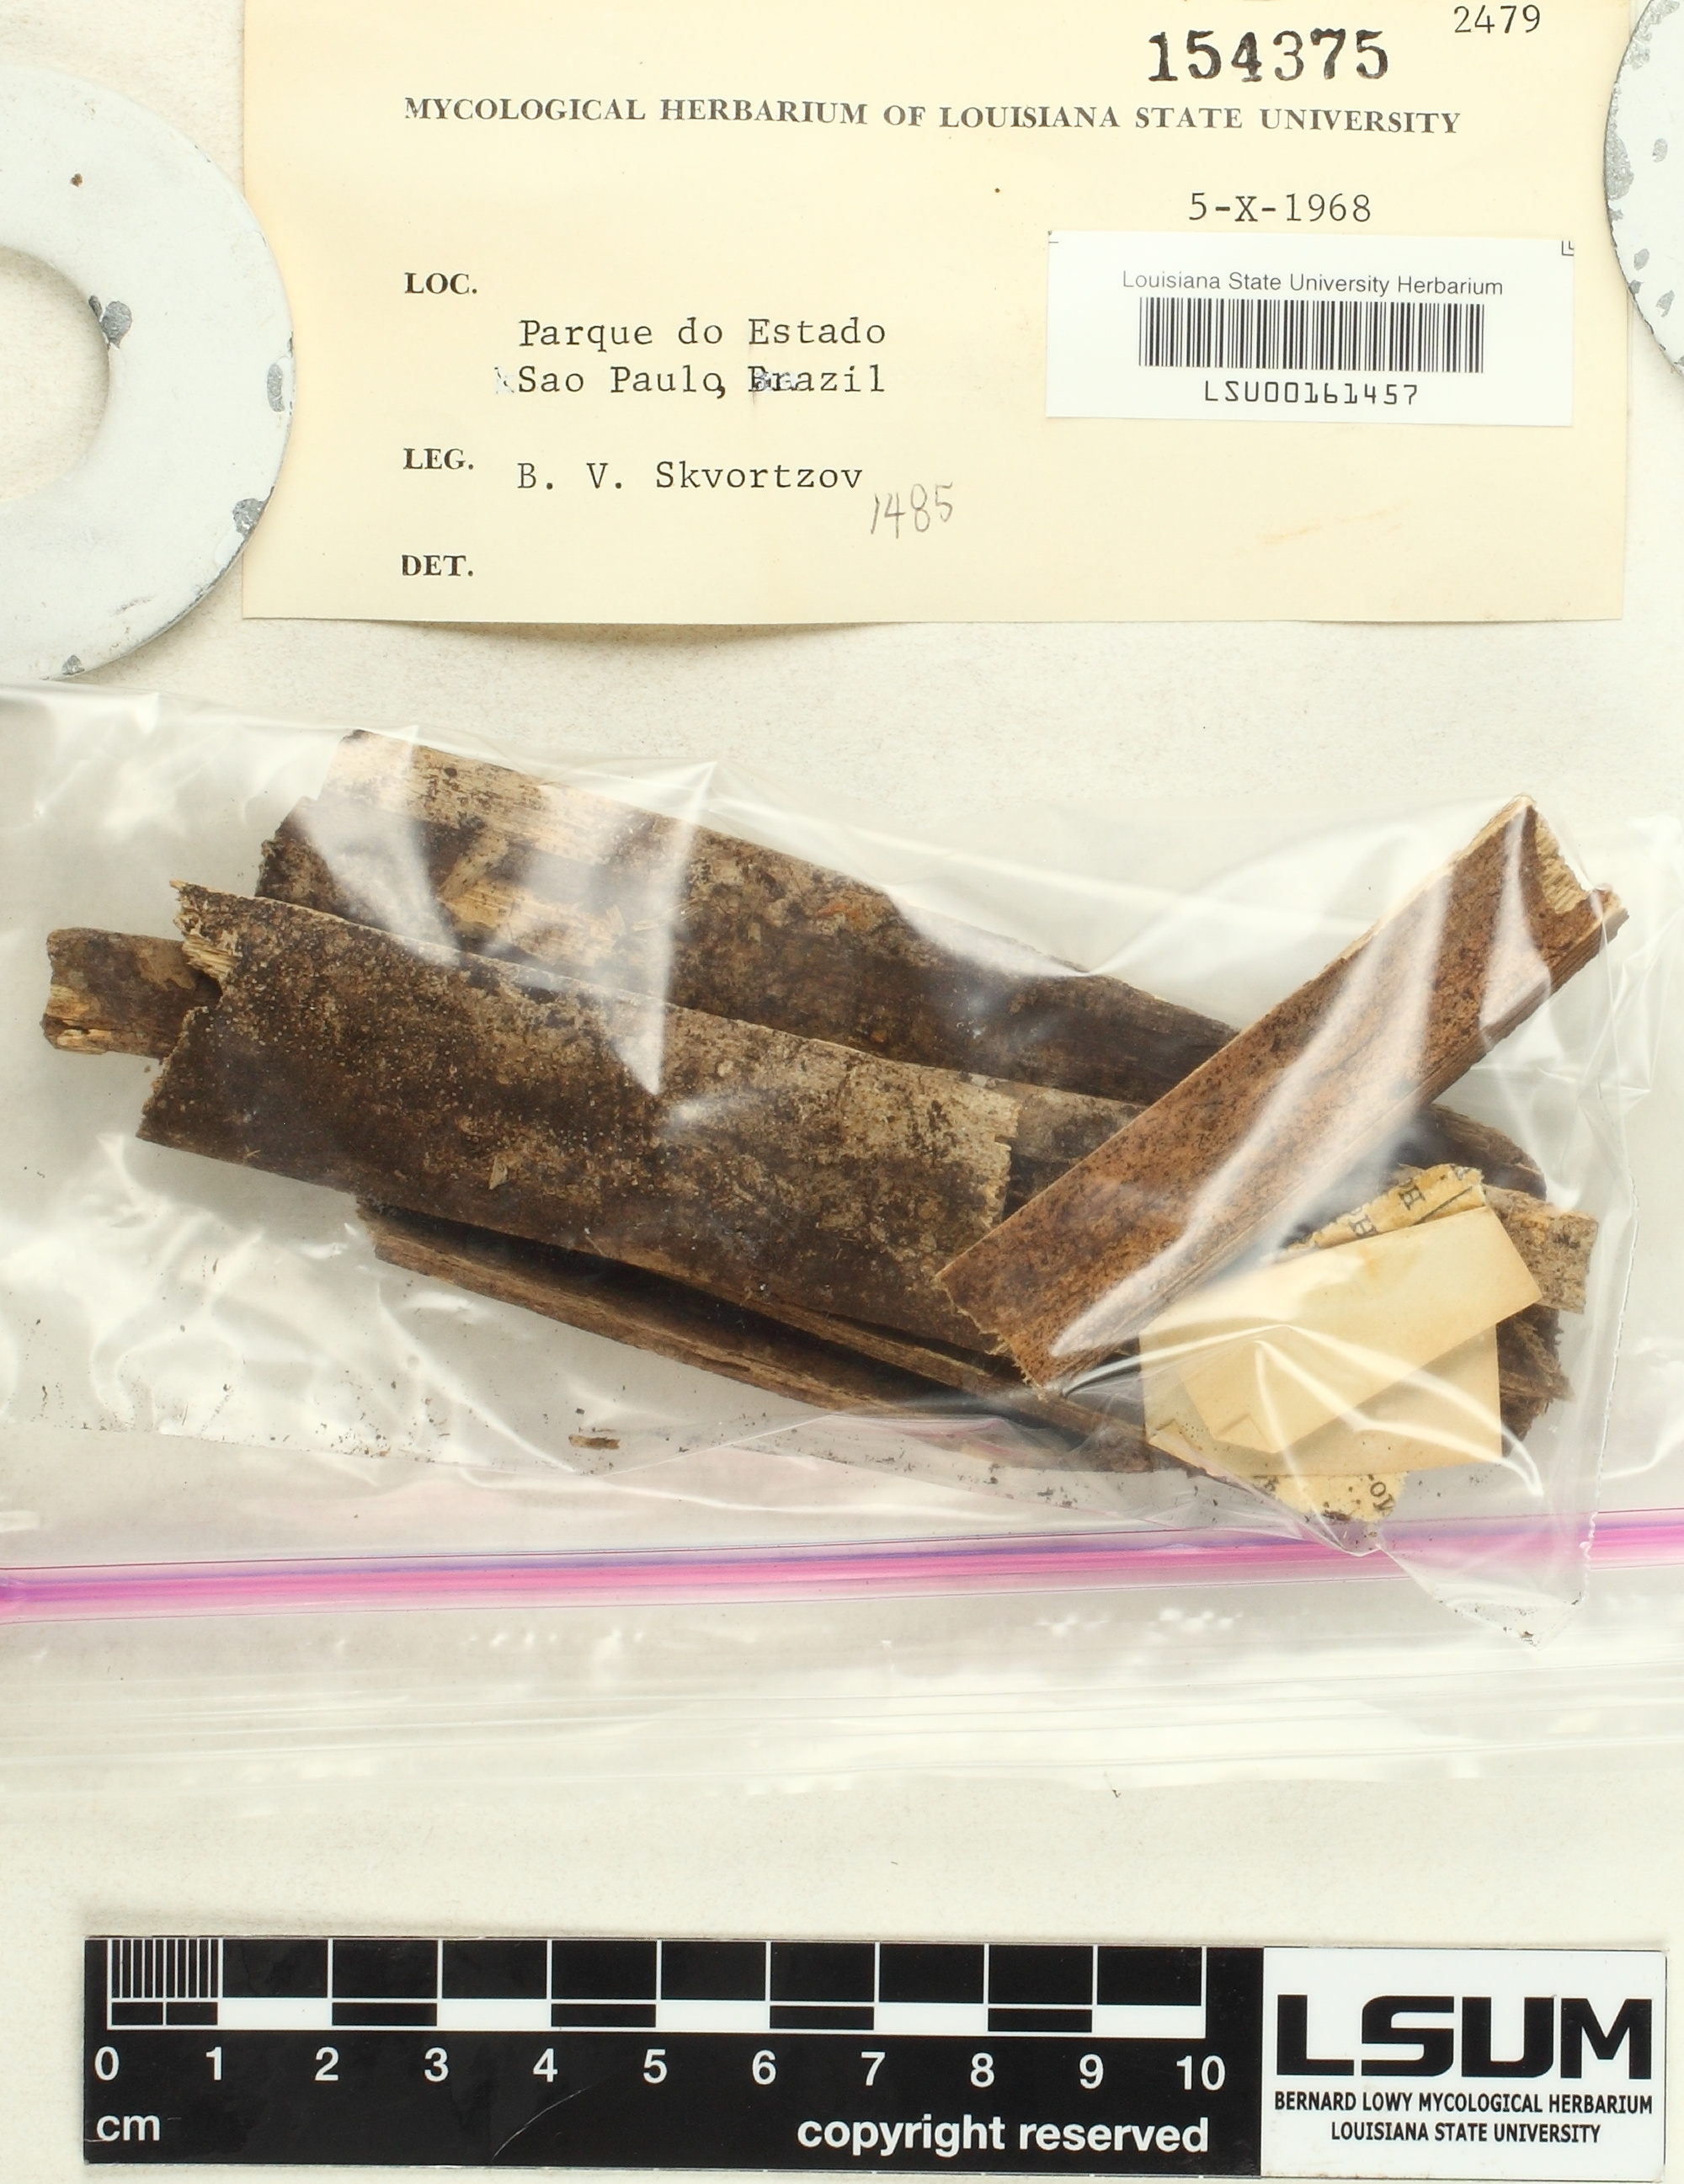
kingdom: Fungi
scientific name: Fungi
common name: Fungi
